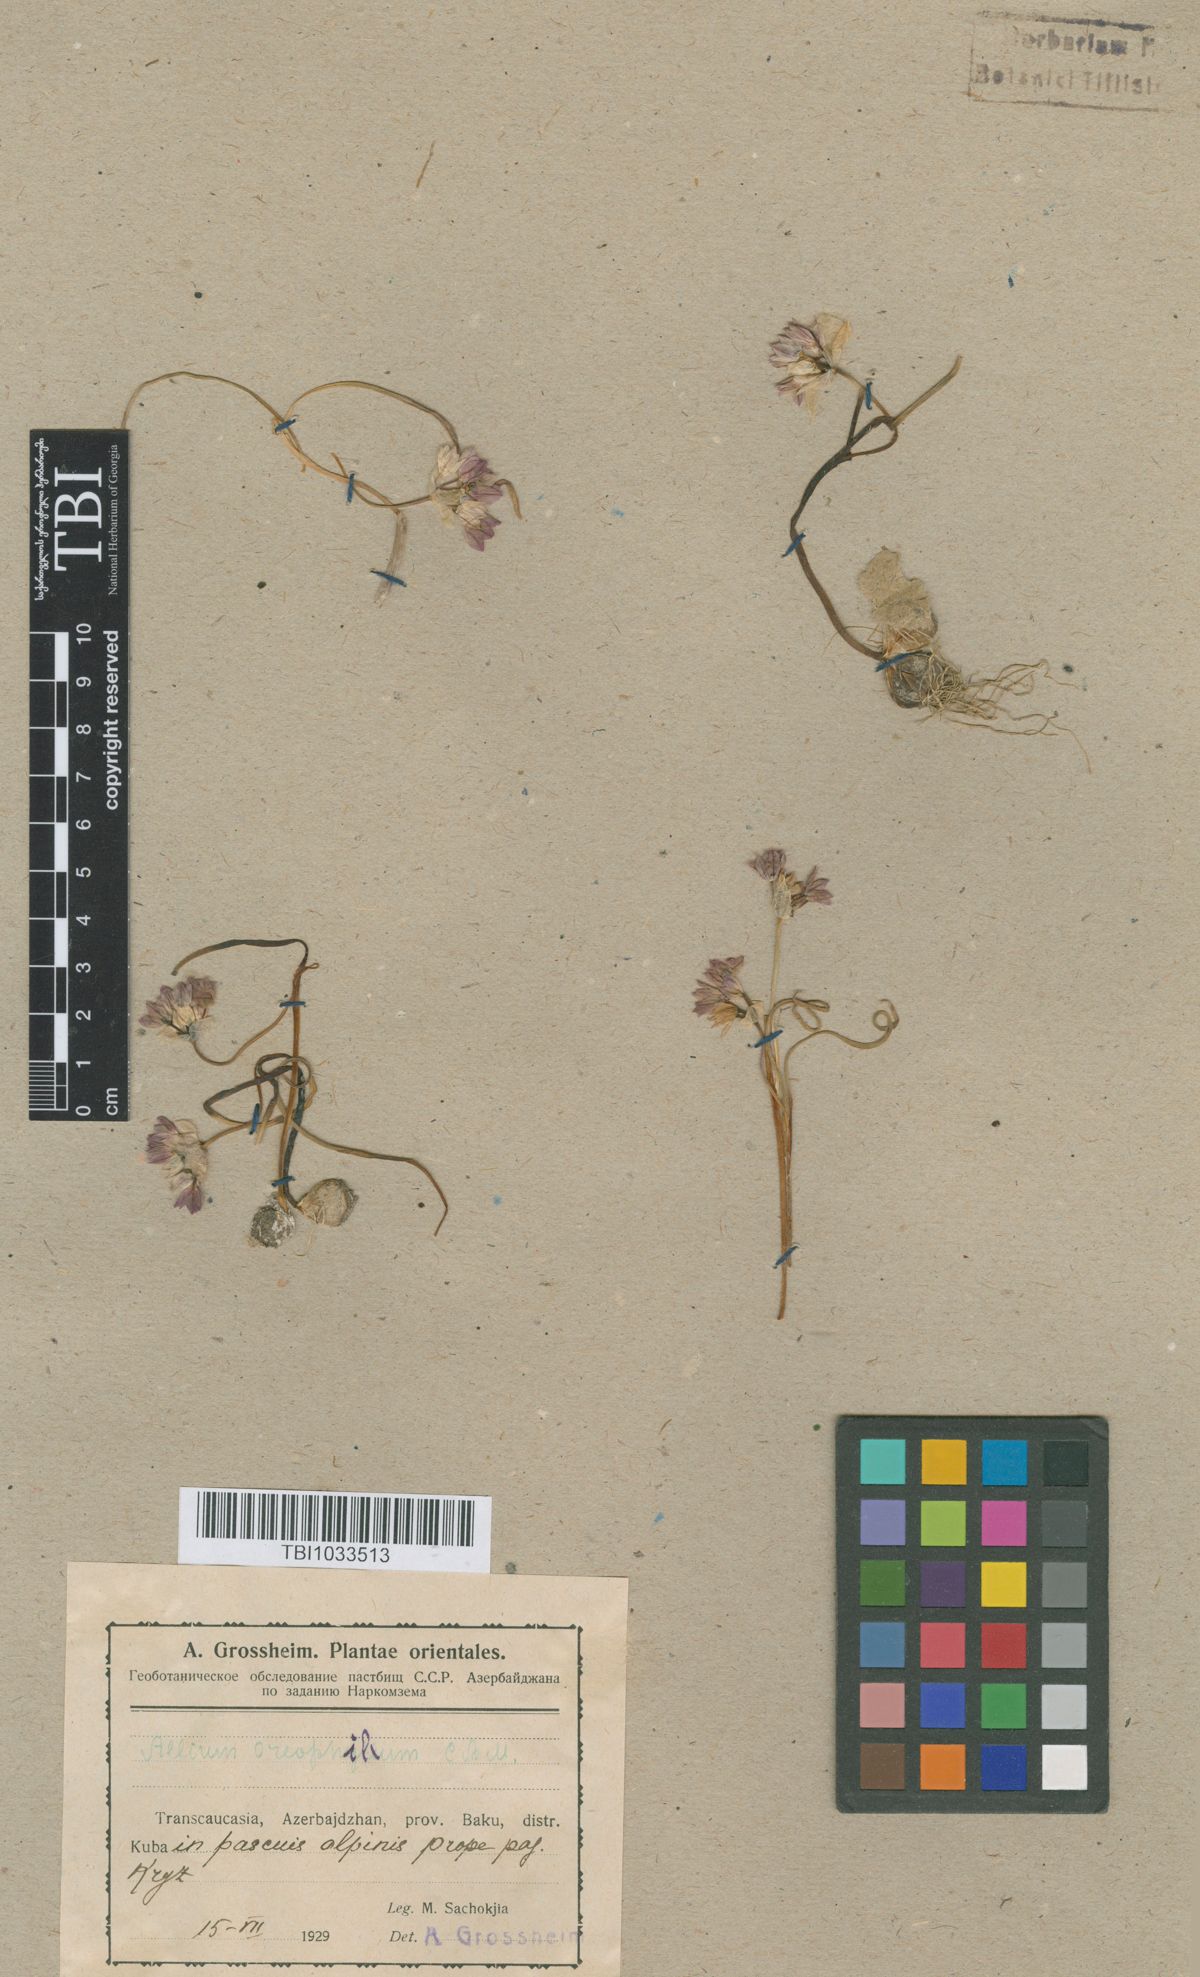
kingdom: Plantae
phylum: Tracheophyta
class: Liliopsida
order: Asparagales
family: Amaryllidaceae
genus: Allium
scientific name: Allium oreophilum
